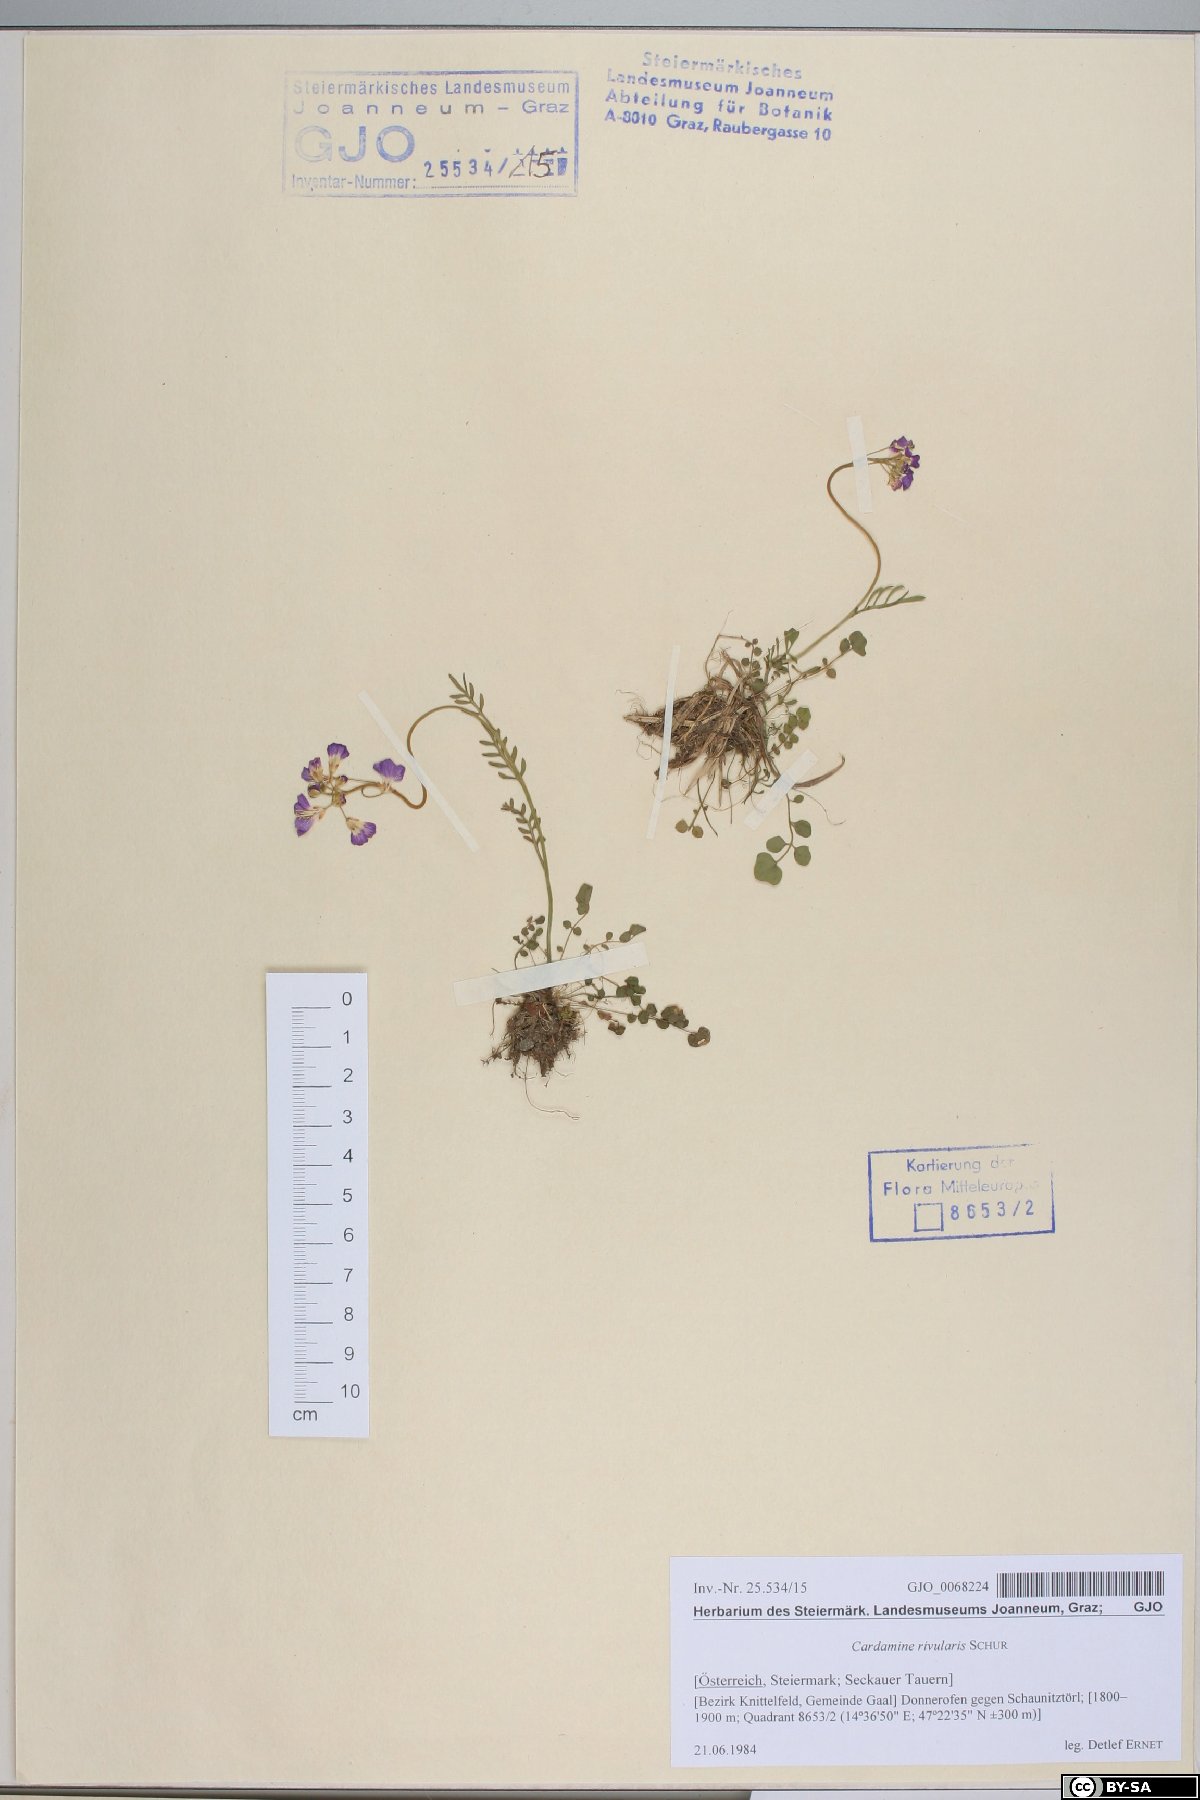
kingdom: Plantae
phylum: Tracheophyta
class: Magnoliopsida
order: Brassicales
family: Brassicaceae
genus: Cardamine
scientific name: Cardamine pratensis
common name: Cuckoo flower
